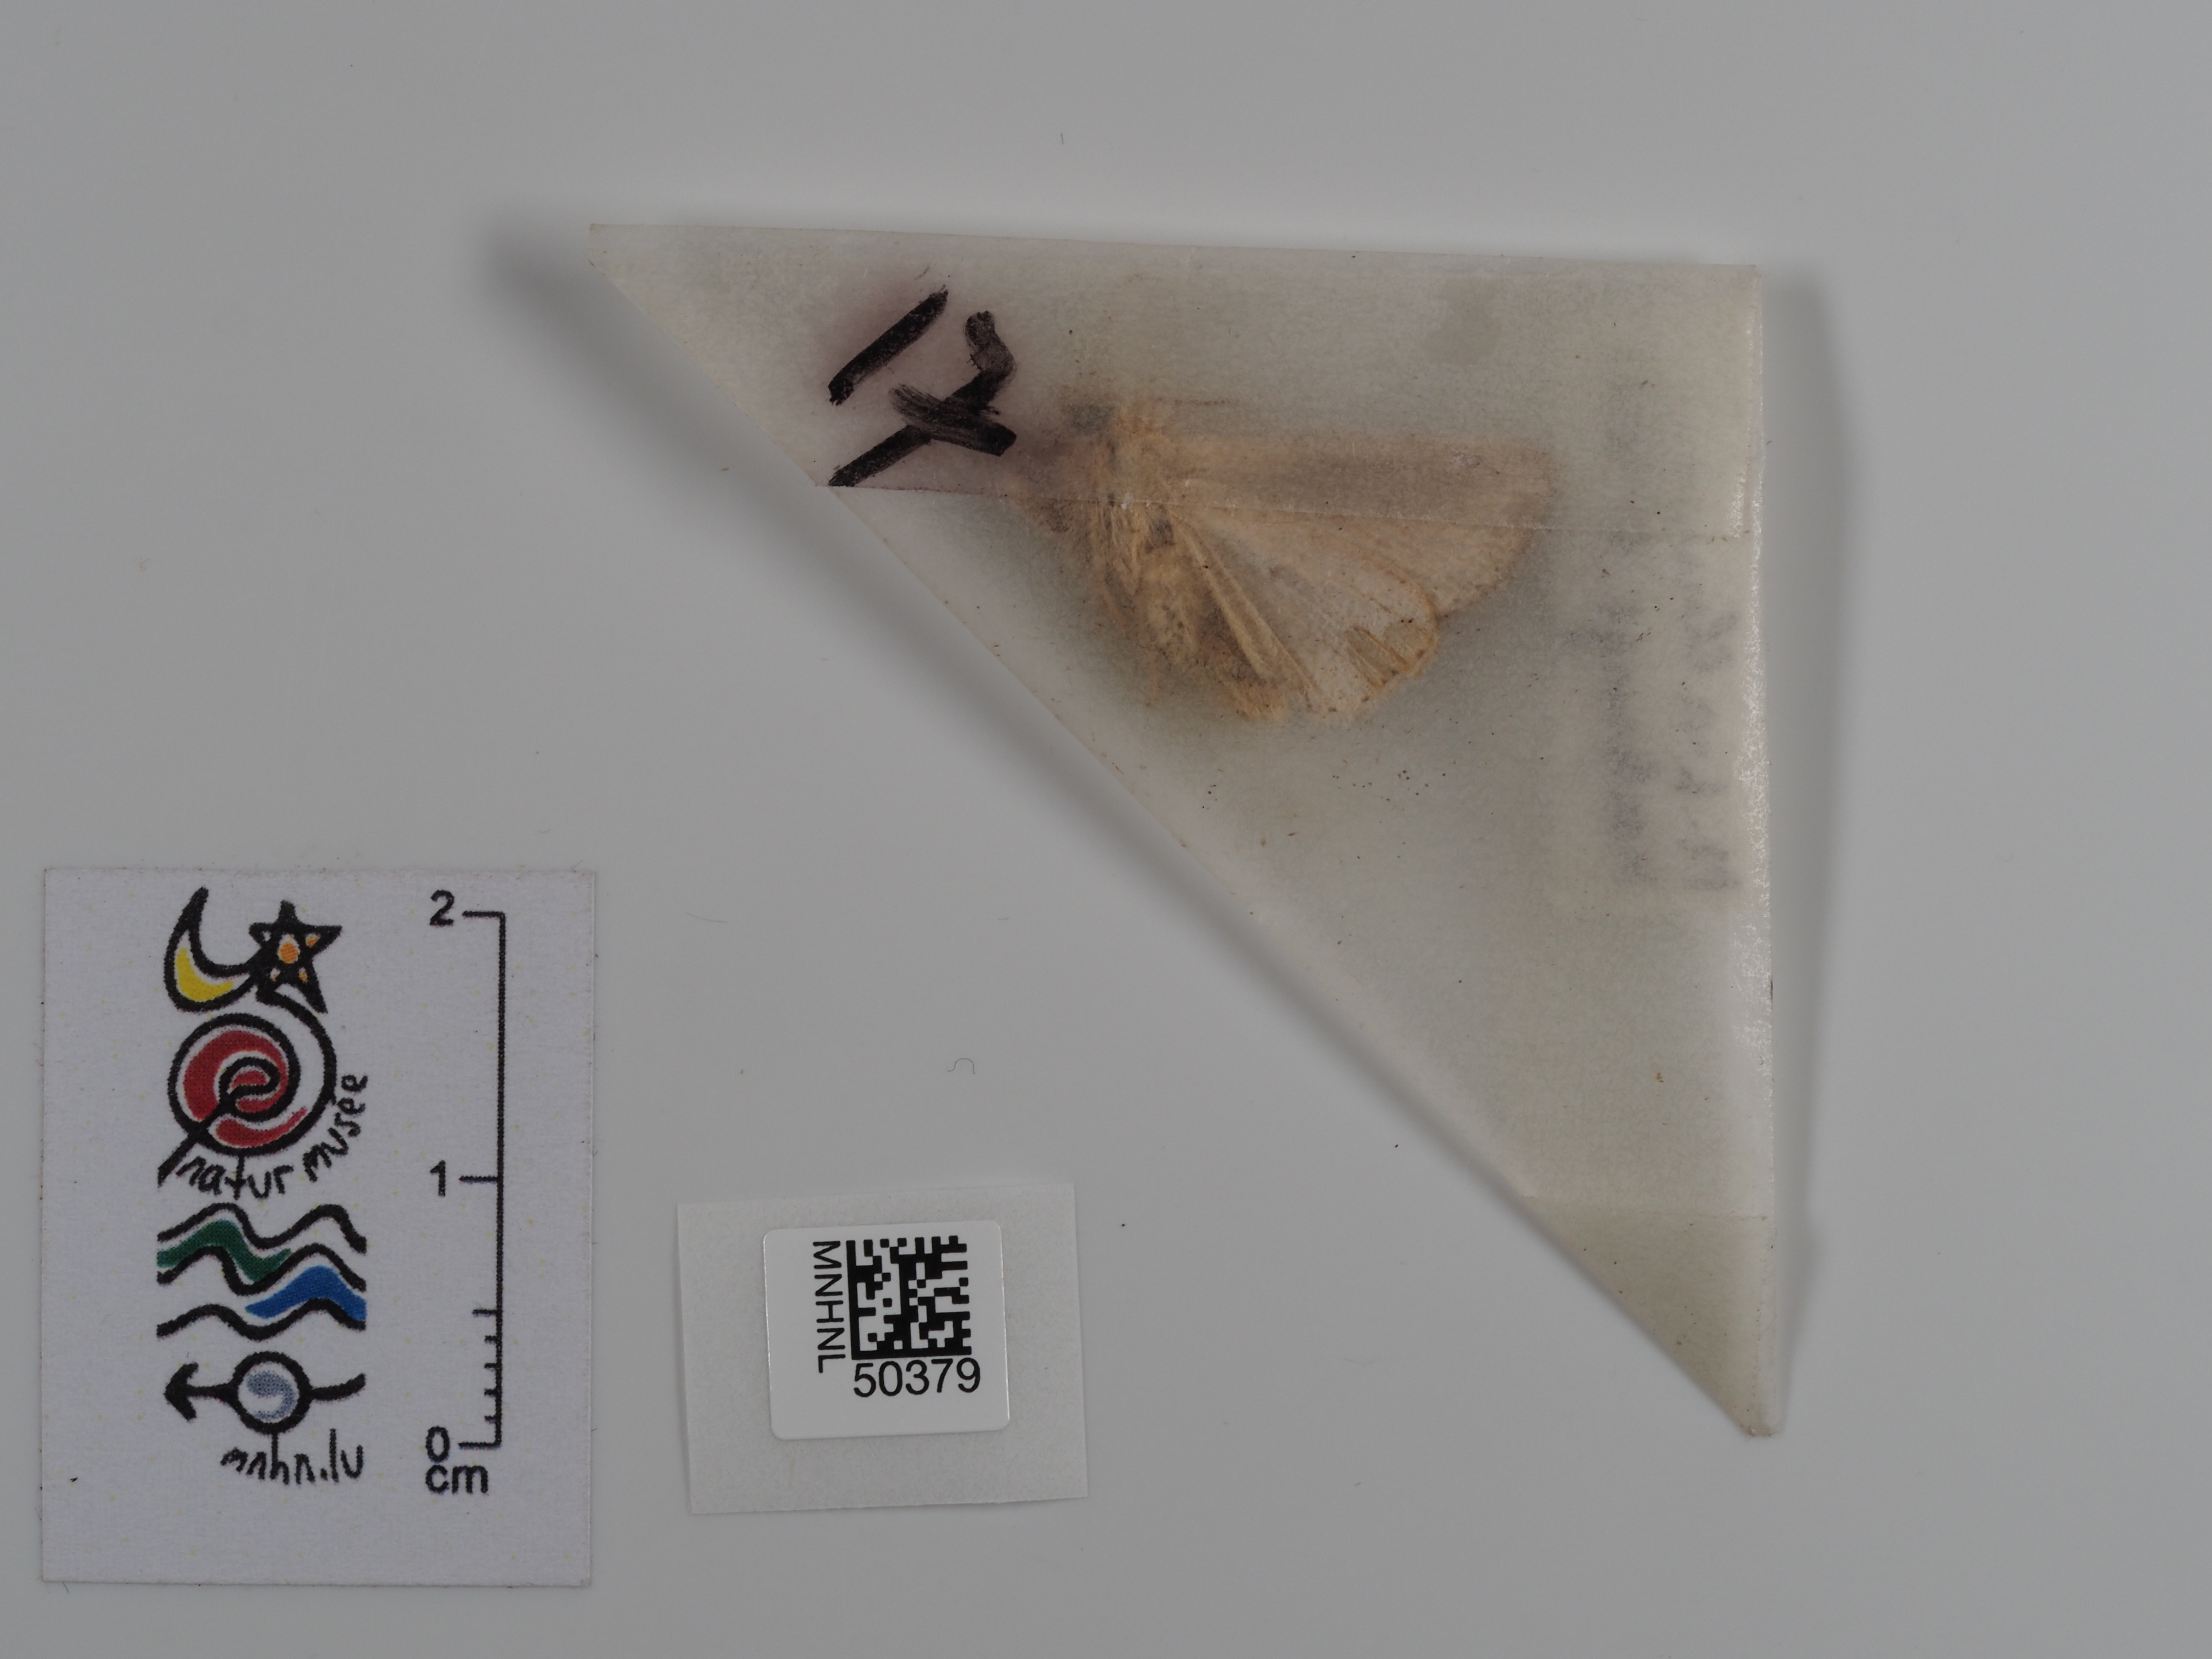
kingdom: Animalia
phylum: Arthropoda
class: Insecta
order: Lepidoptera
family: Noctuidae
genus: Mythimna
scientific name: Mythimna l-album
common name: L-album wainscot
